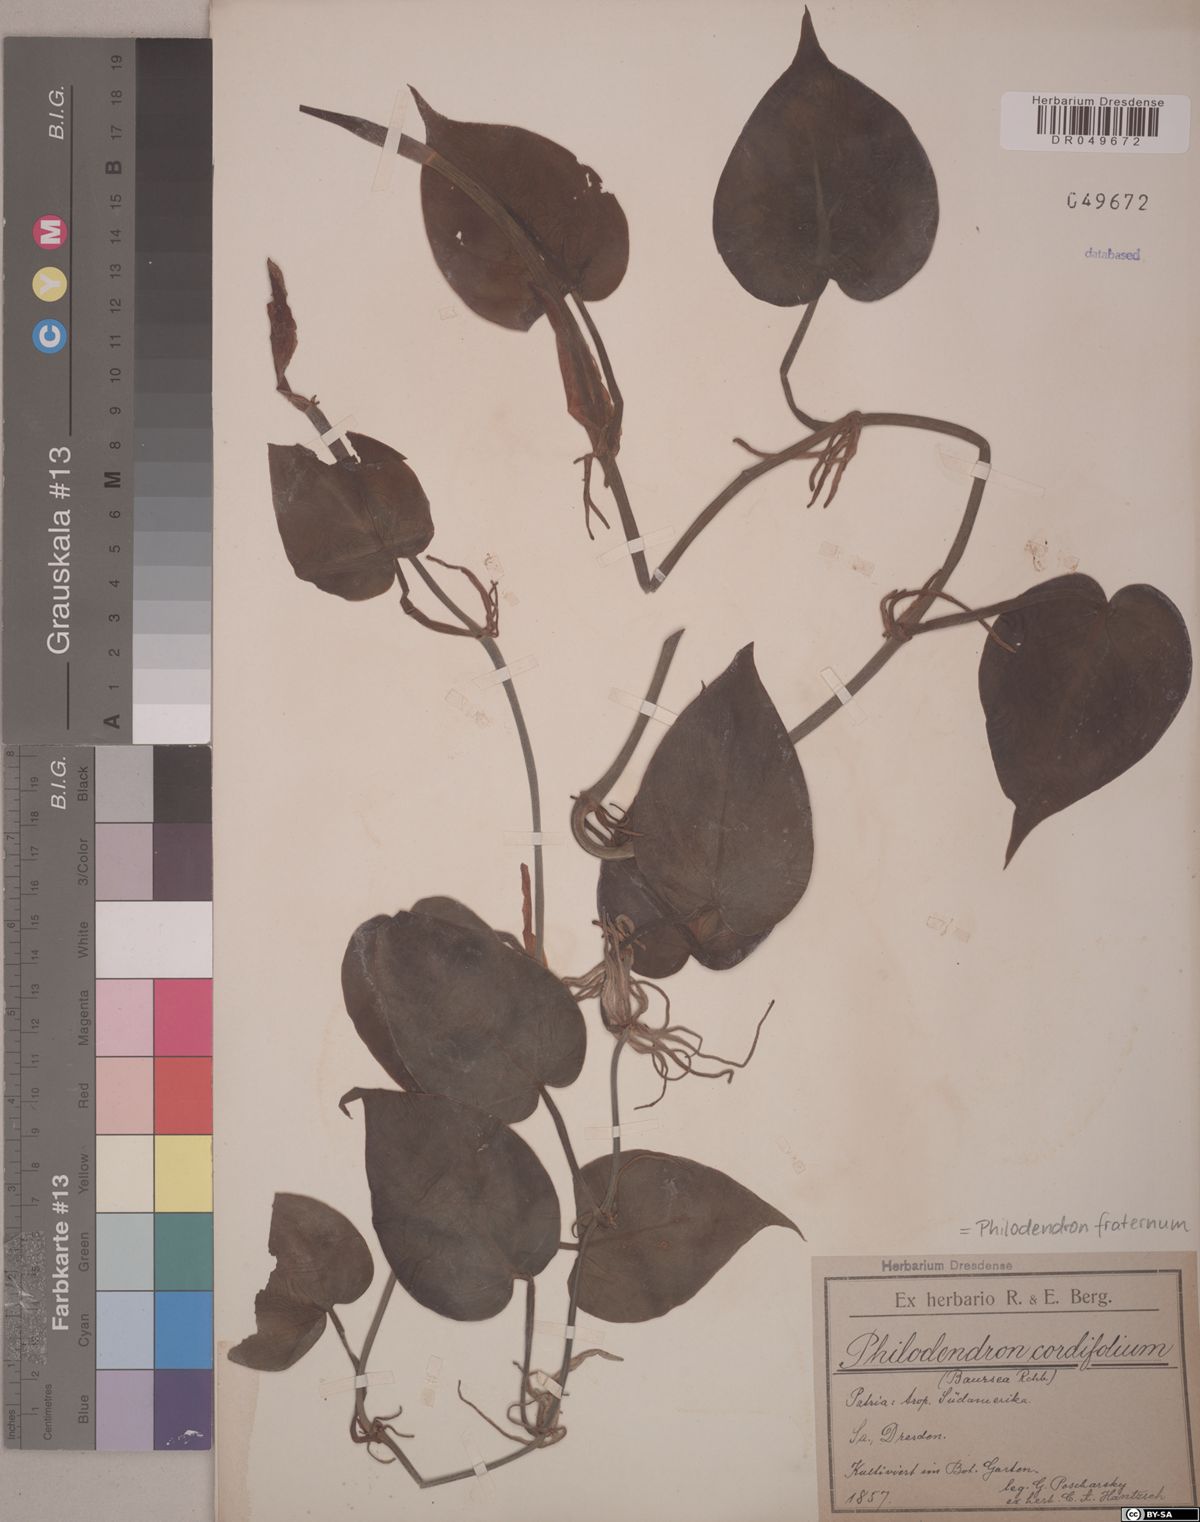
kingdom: Plantae
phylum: Tracheophyta
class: Liliopsida
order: Alismatales
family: Araceae
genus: Philodendron
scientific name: Philodendron fraternum
